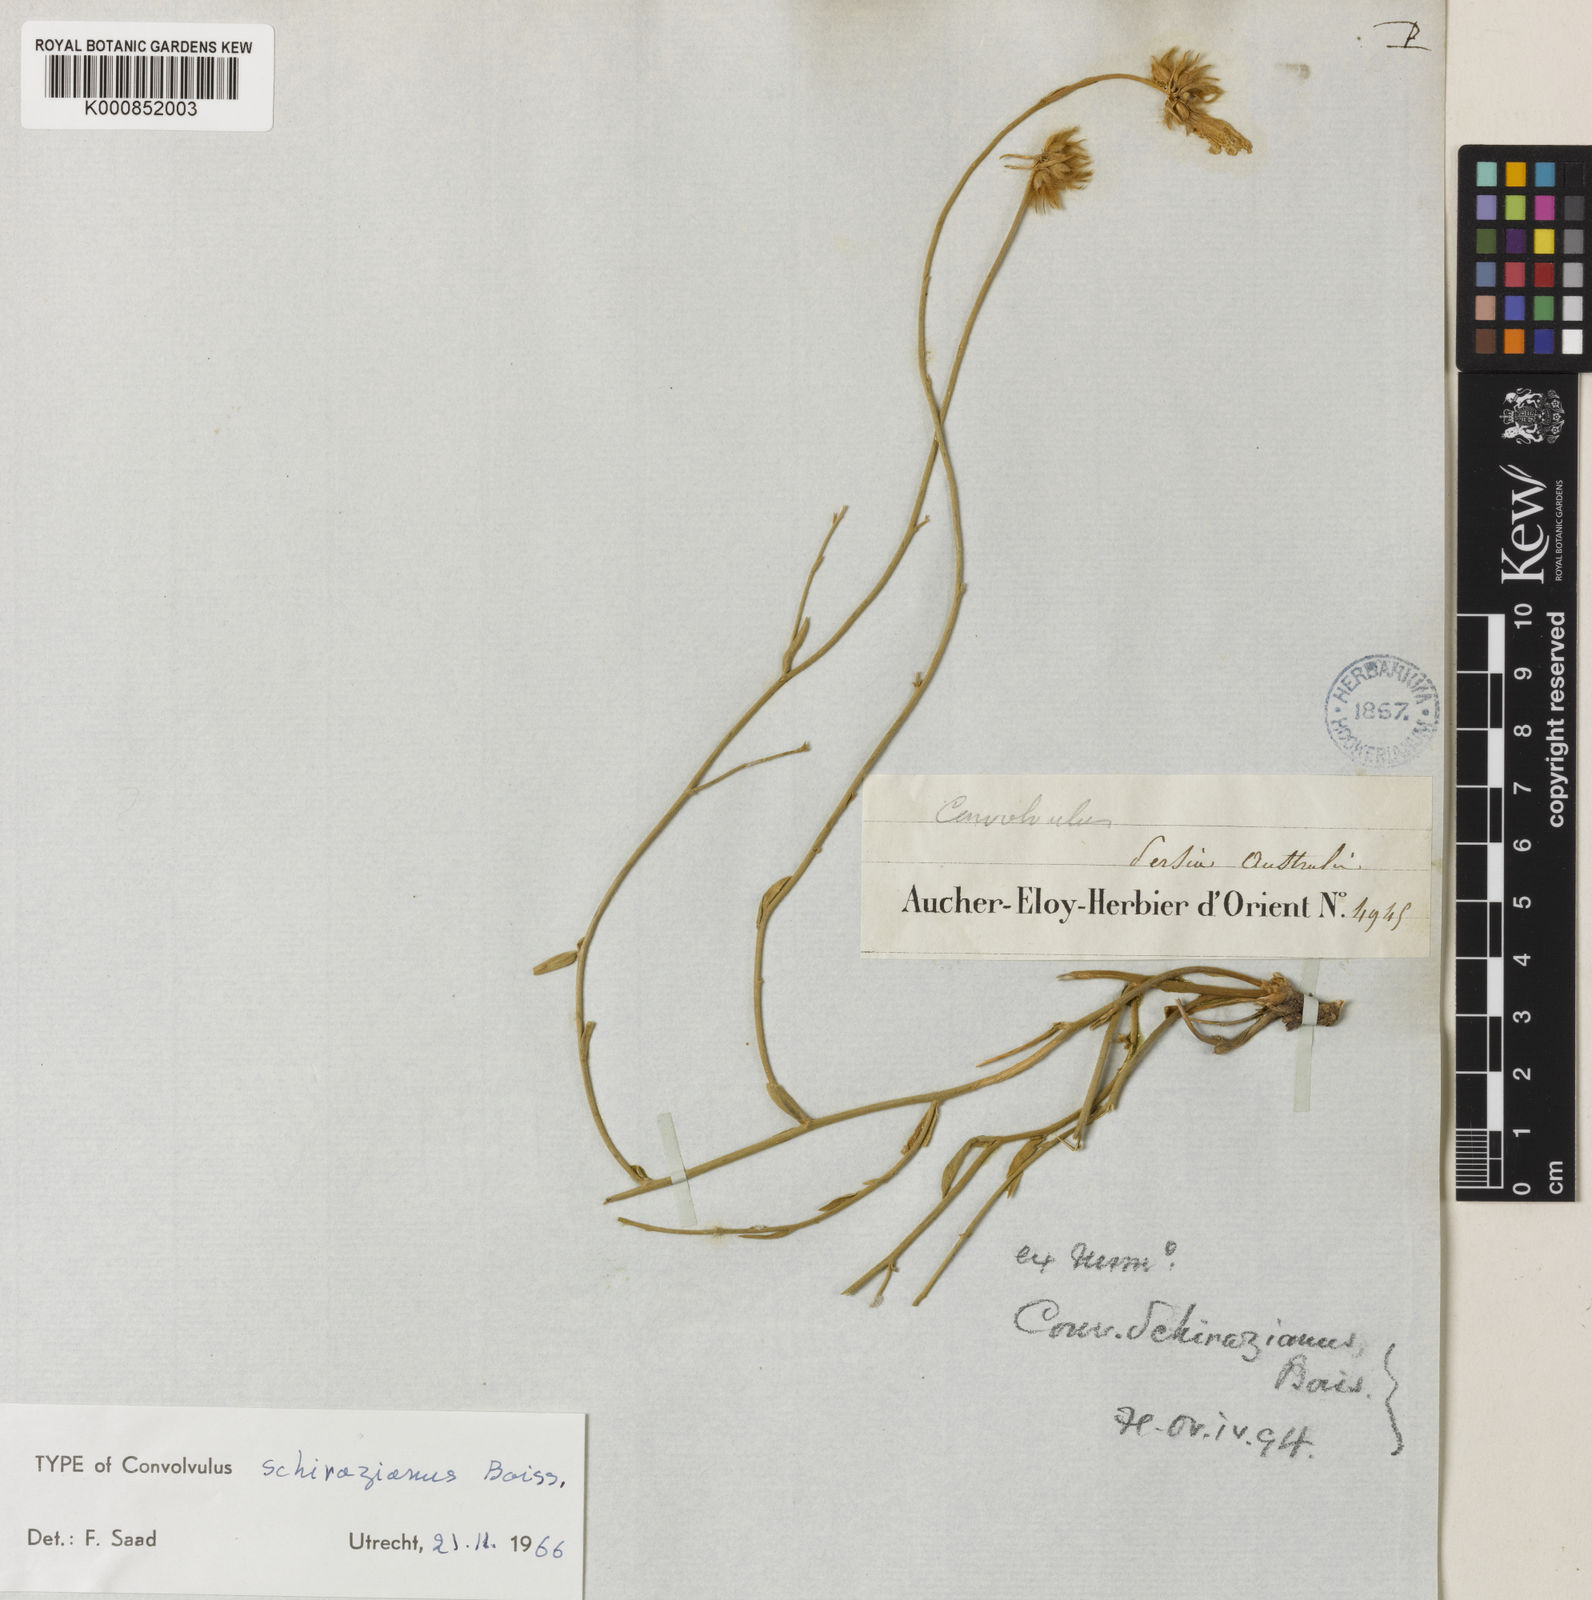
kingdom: Plantae
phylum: Tracheophyta
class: Magnoliopsida
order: Solanales
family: Convolvulaceae
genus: Convolvulus
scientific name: Convolvulus schirazianus
